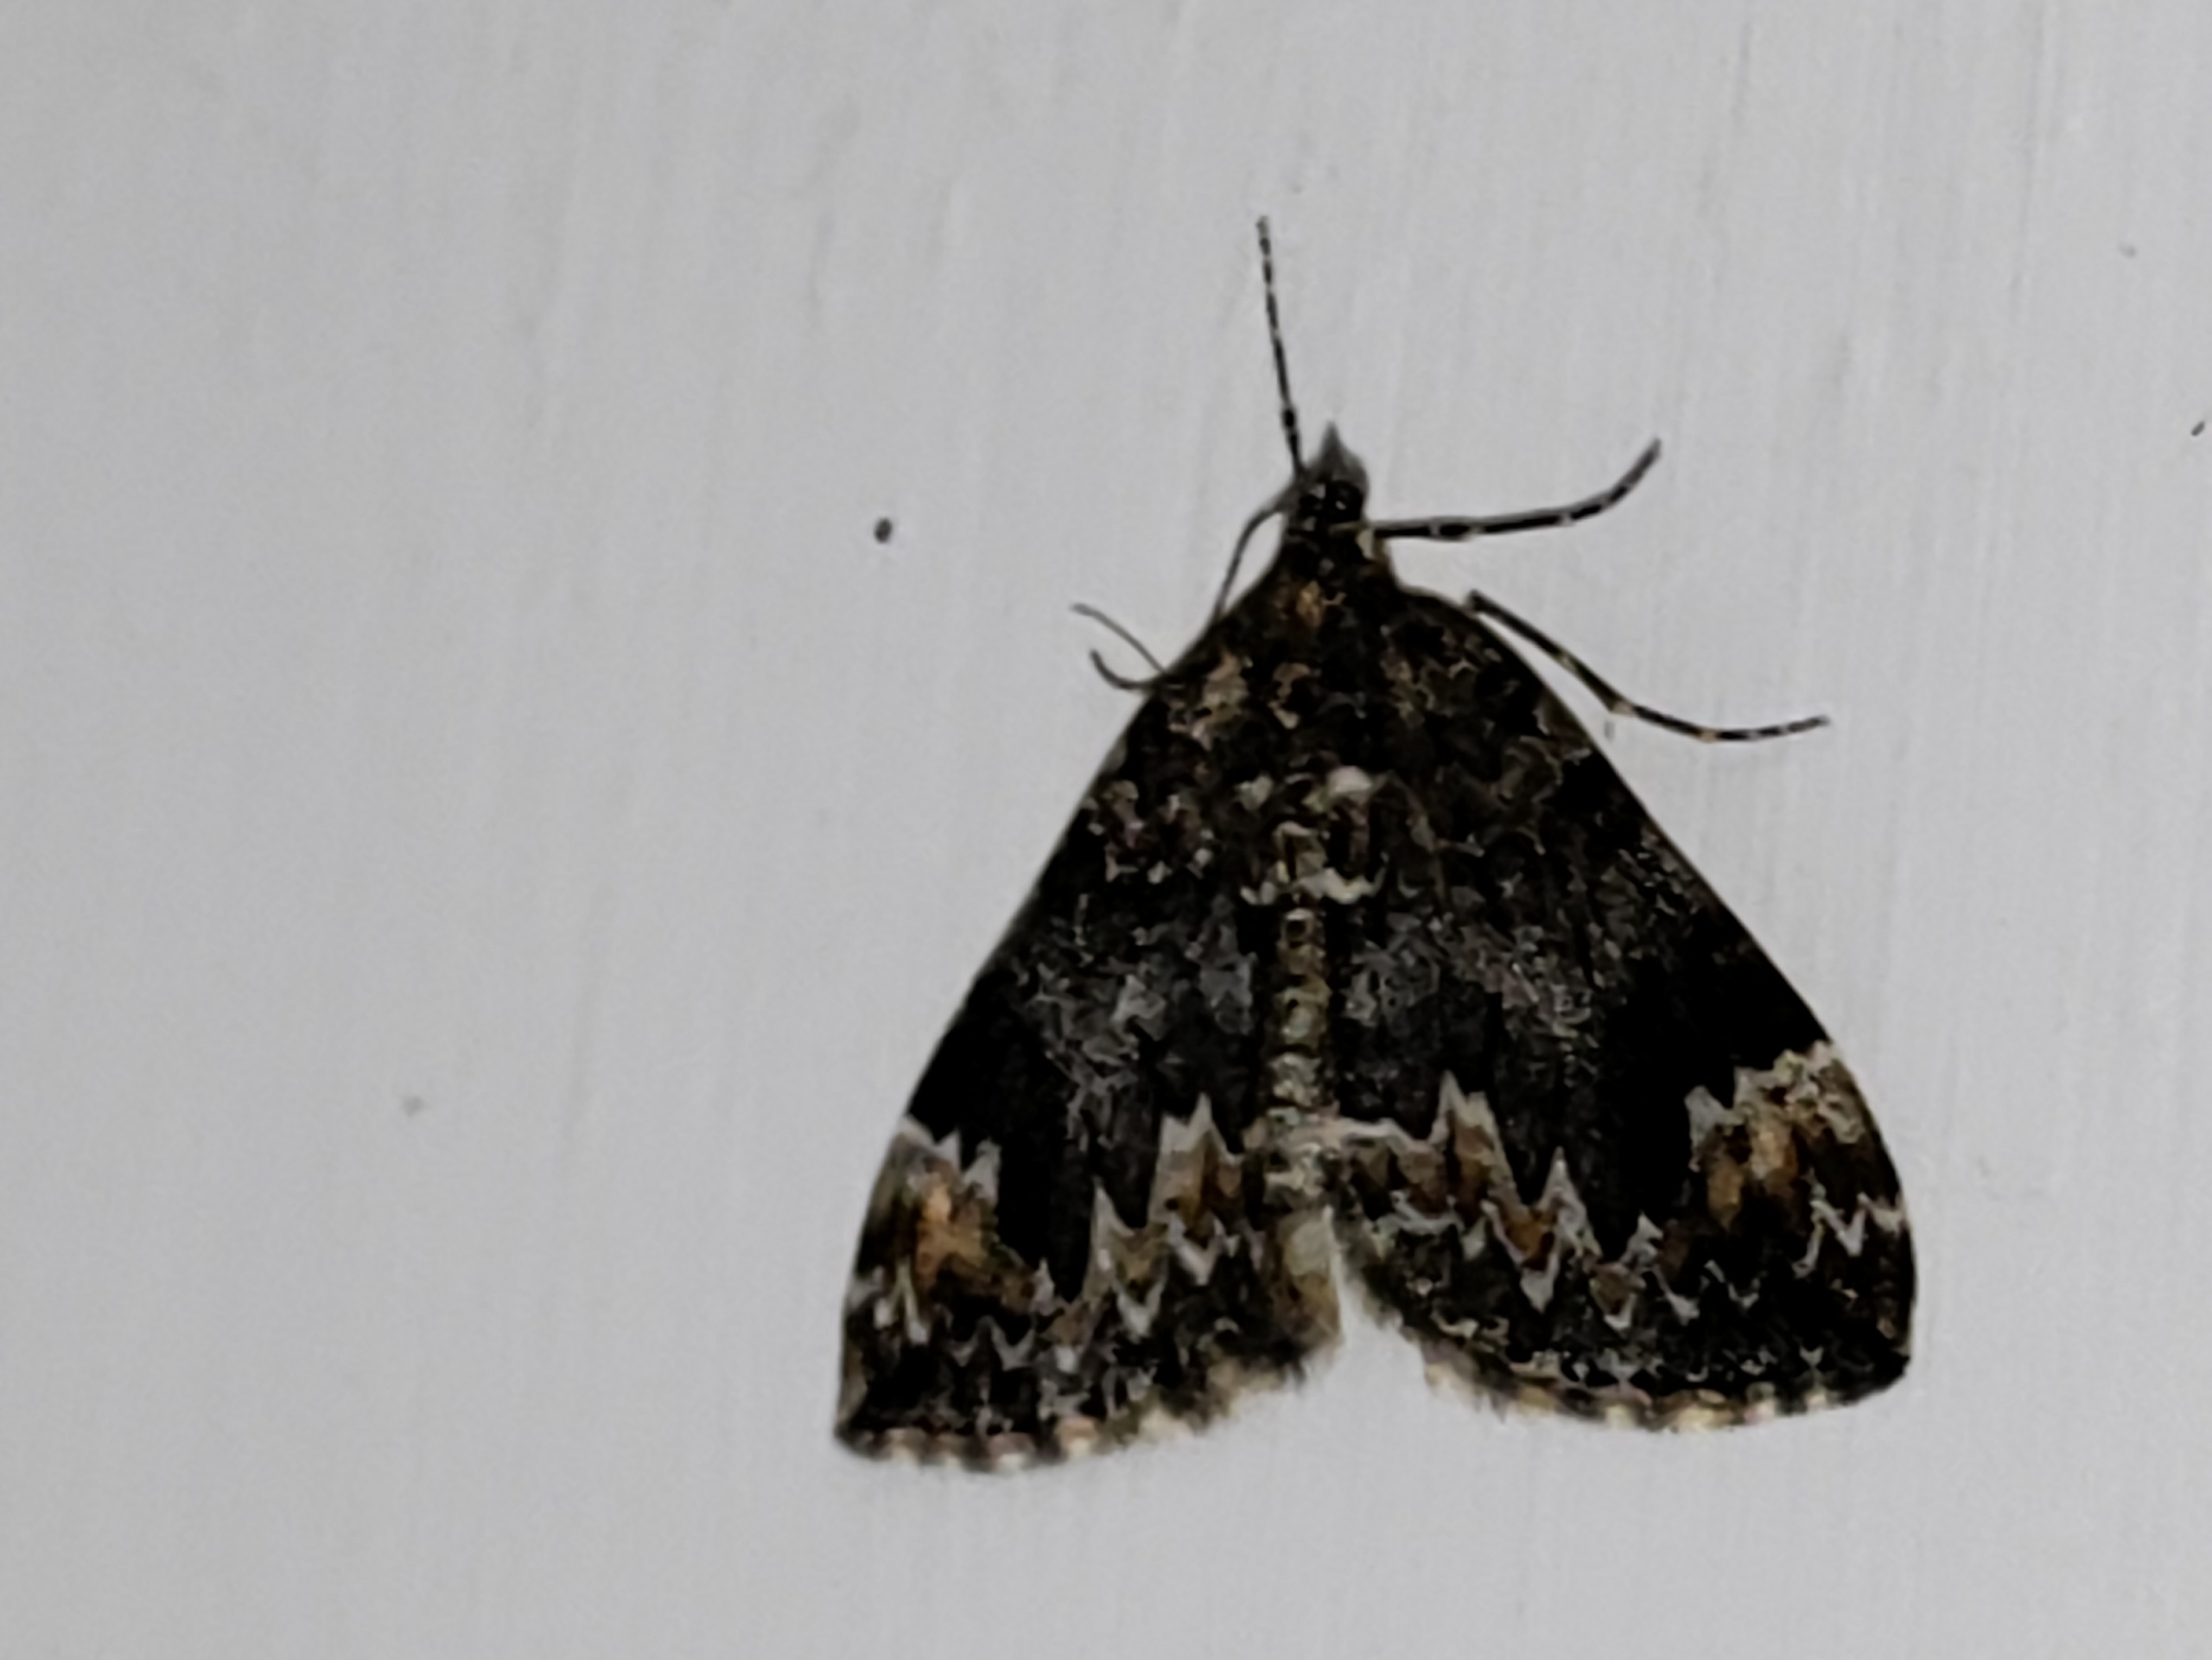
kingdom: Animalia
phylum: Arthropoda
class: Insecta
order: Lepidoptera
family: Geometridae
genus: Dysstroma
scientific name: Dysstroma citrata
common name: Spidsvinget bladmåler
